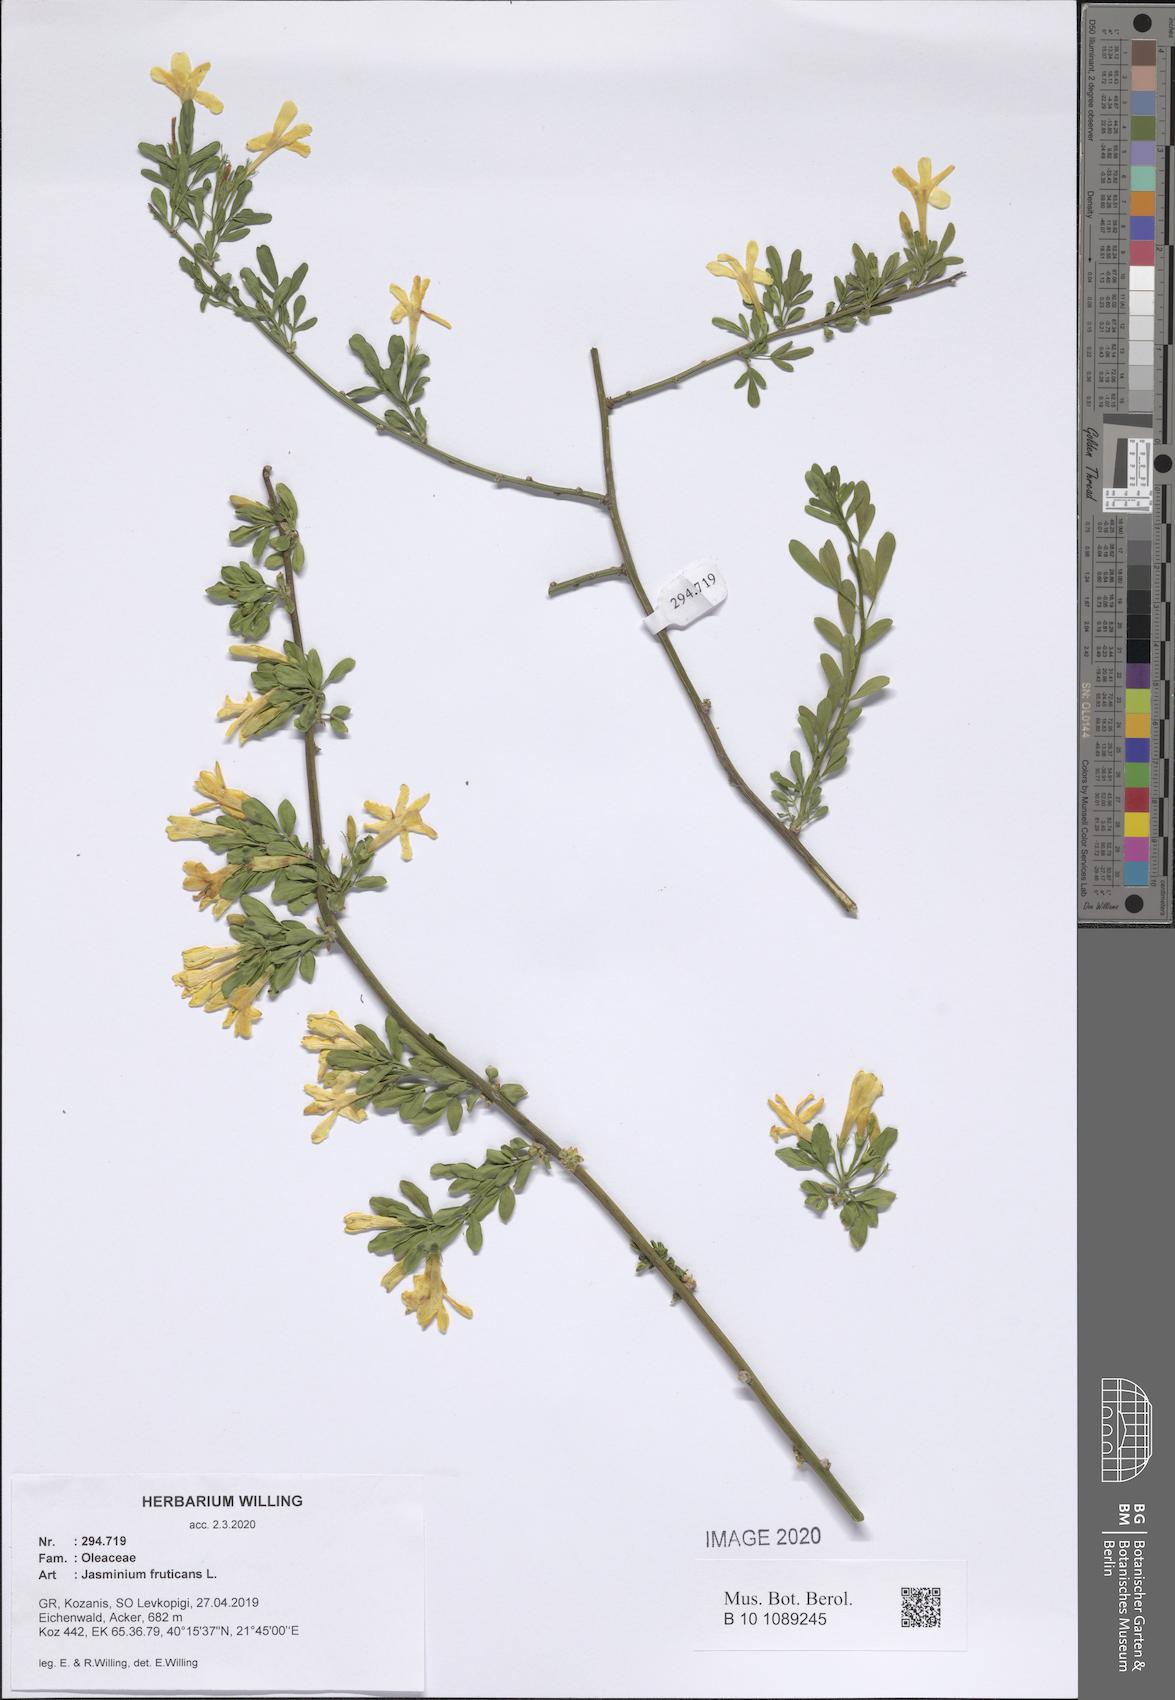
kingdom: Plantae
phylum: Tracheophyta
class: Magnoliopsida
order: Lamiales
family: Oleaceae
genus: Chrysojasminum
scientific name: Chrysojasminum fruticans
